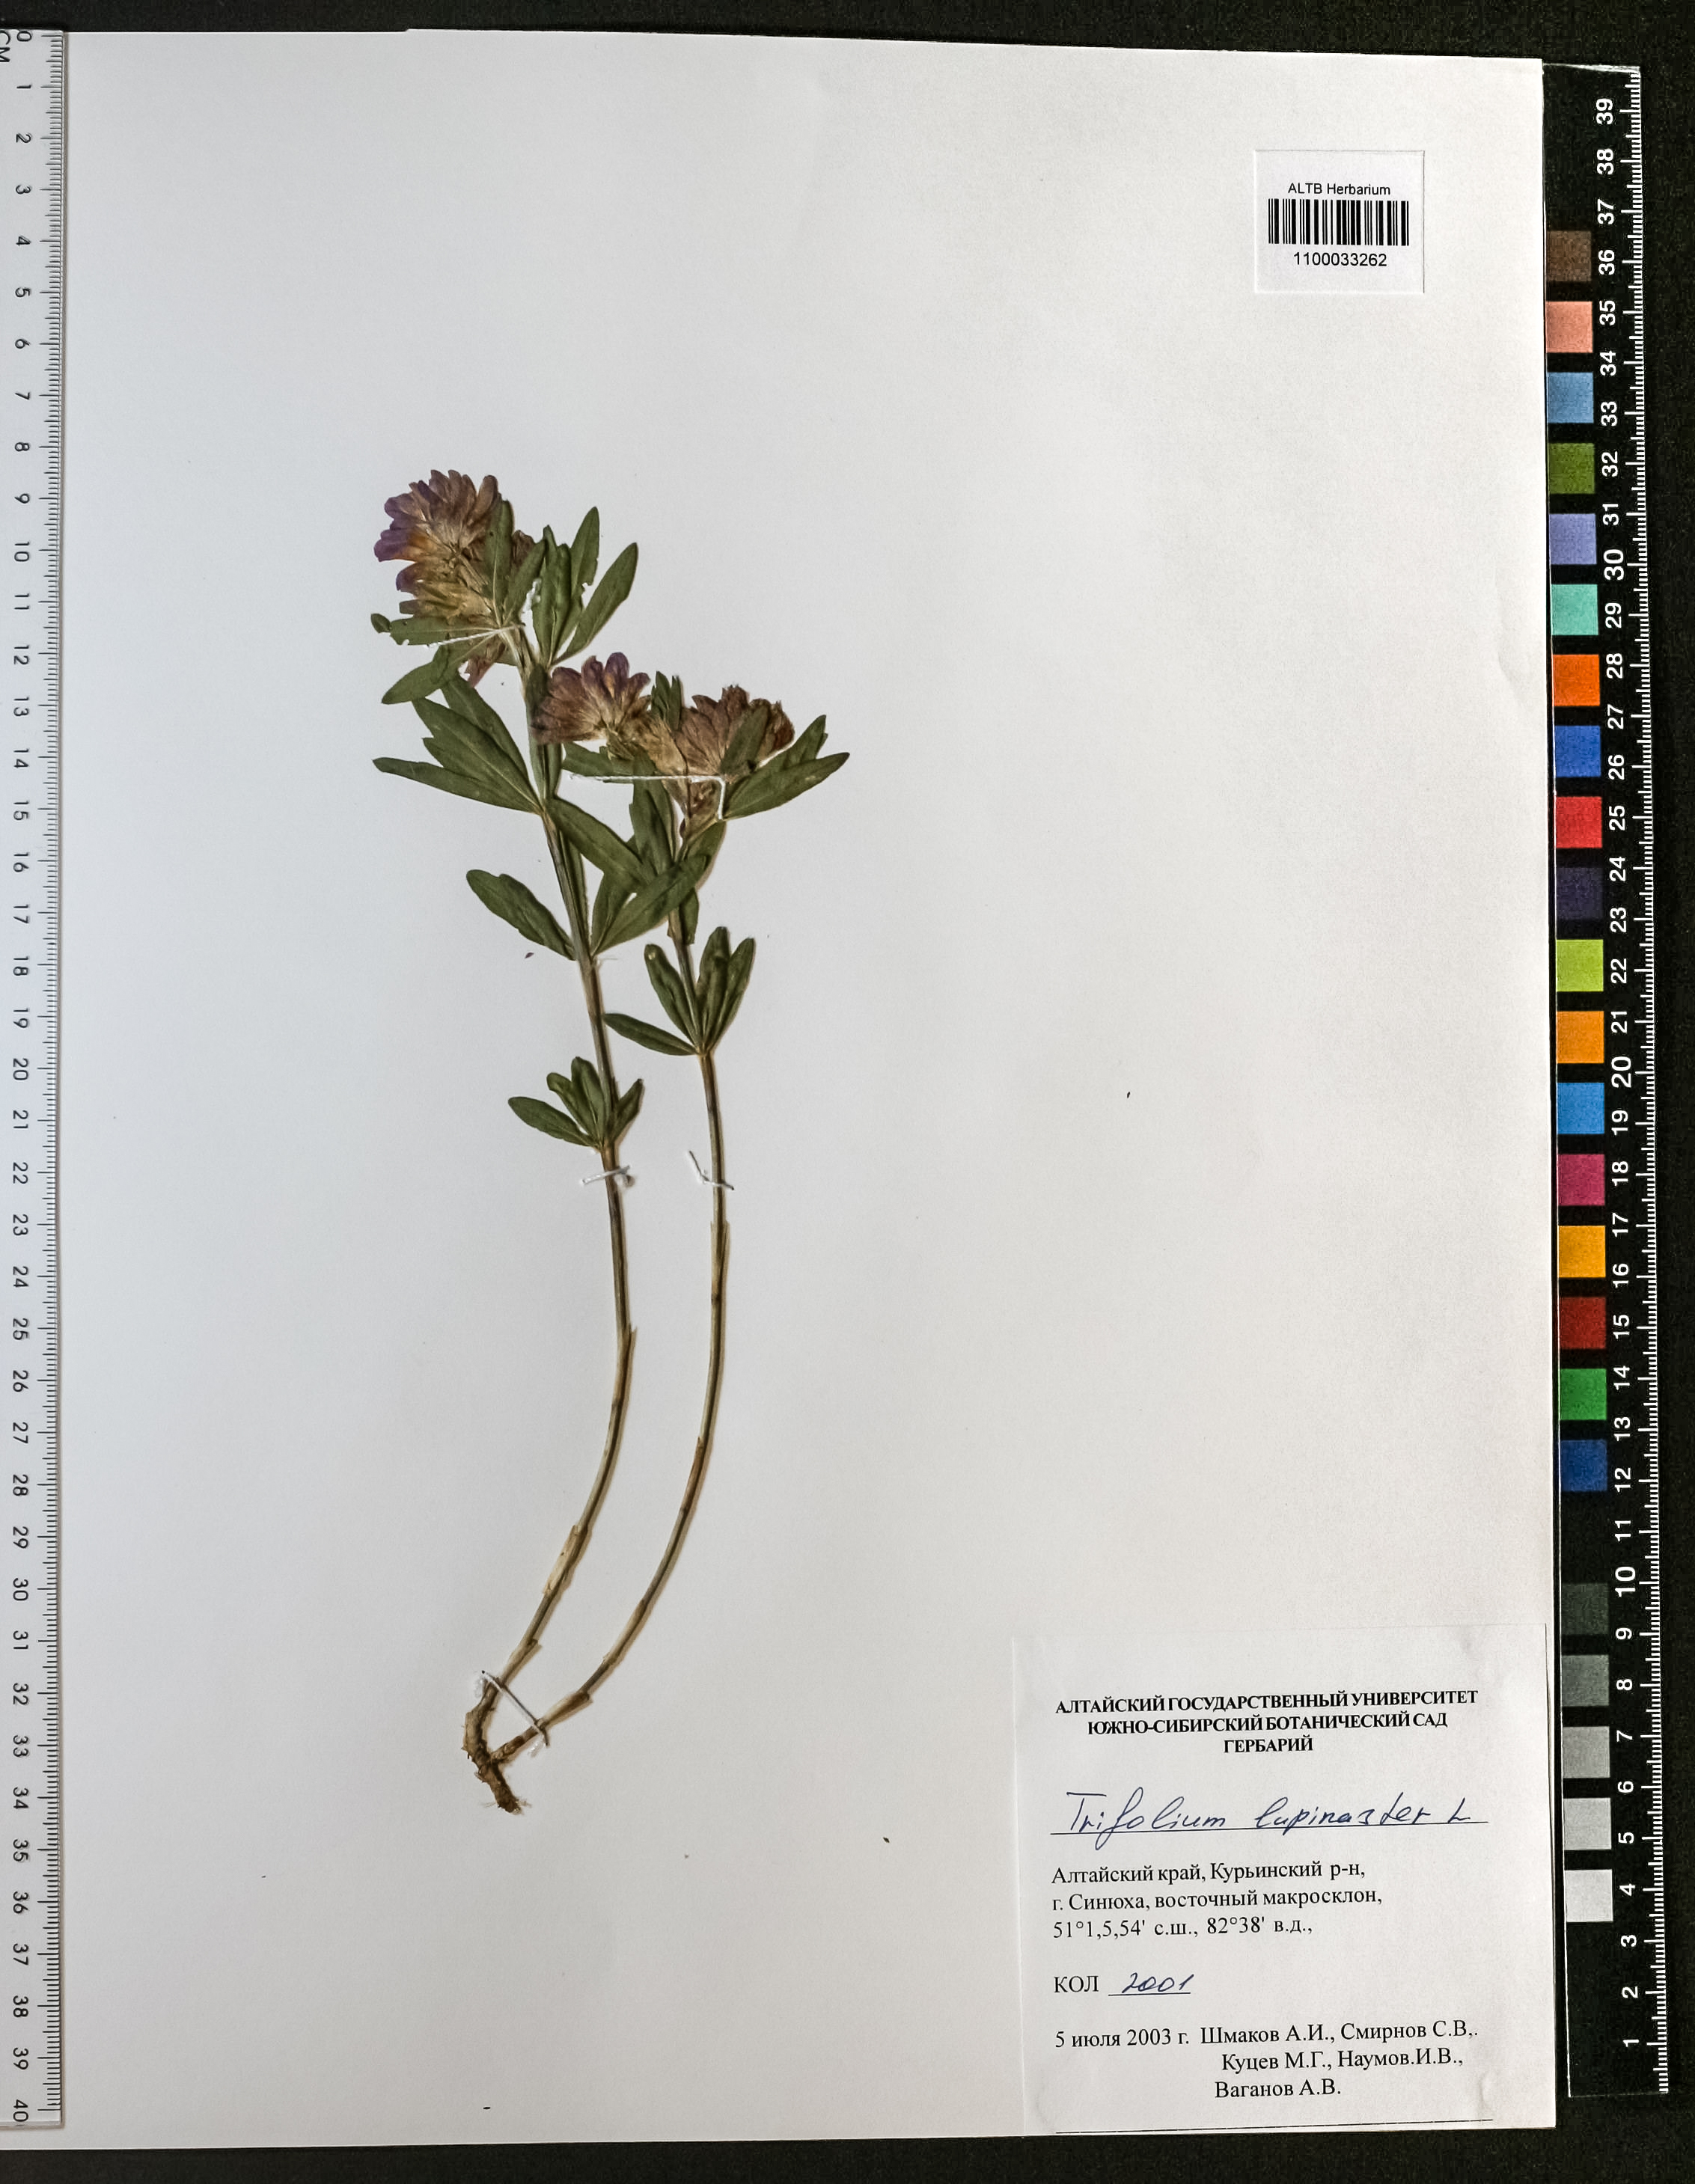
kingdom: Plantae
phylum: Tracheophyta
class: Magnoliopsida
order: Fabales
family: Fabaceae
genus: Trifolium
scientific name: Trifolium lupinaster
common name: Lupine clover
